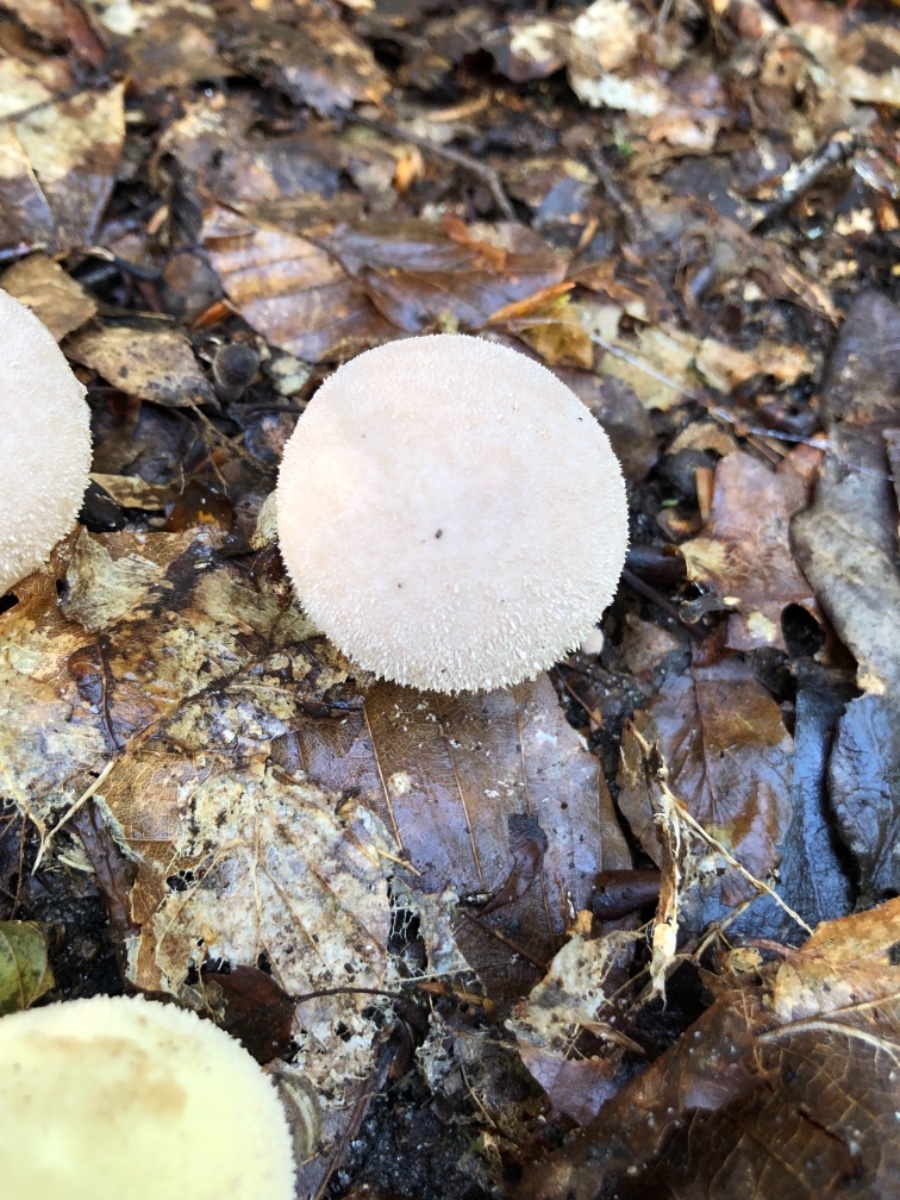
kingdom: Fungi
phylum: Basidiomycota
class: Agaricomycetes
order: Agaricales
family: Lycoperdaceae
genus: Lycoperdon
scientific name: Lycoperdon molle
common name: skov-støvbold
